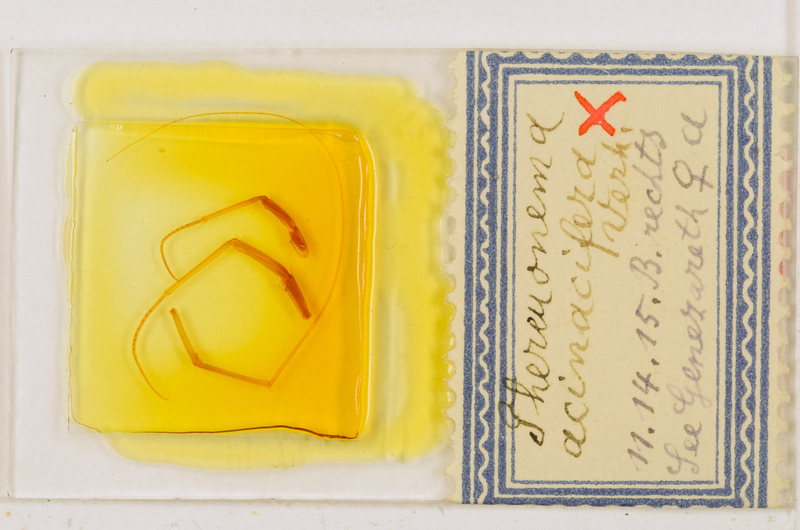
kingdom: Animalia
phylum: Arthropoda
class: Chilopoda
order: Scutigeromorpha
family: Scutigeridae
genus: Thereuonema
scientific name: Thereuonema microstoma
